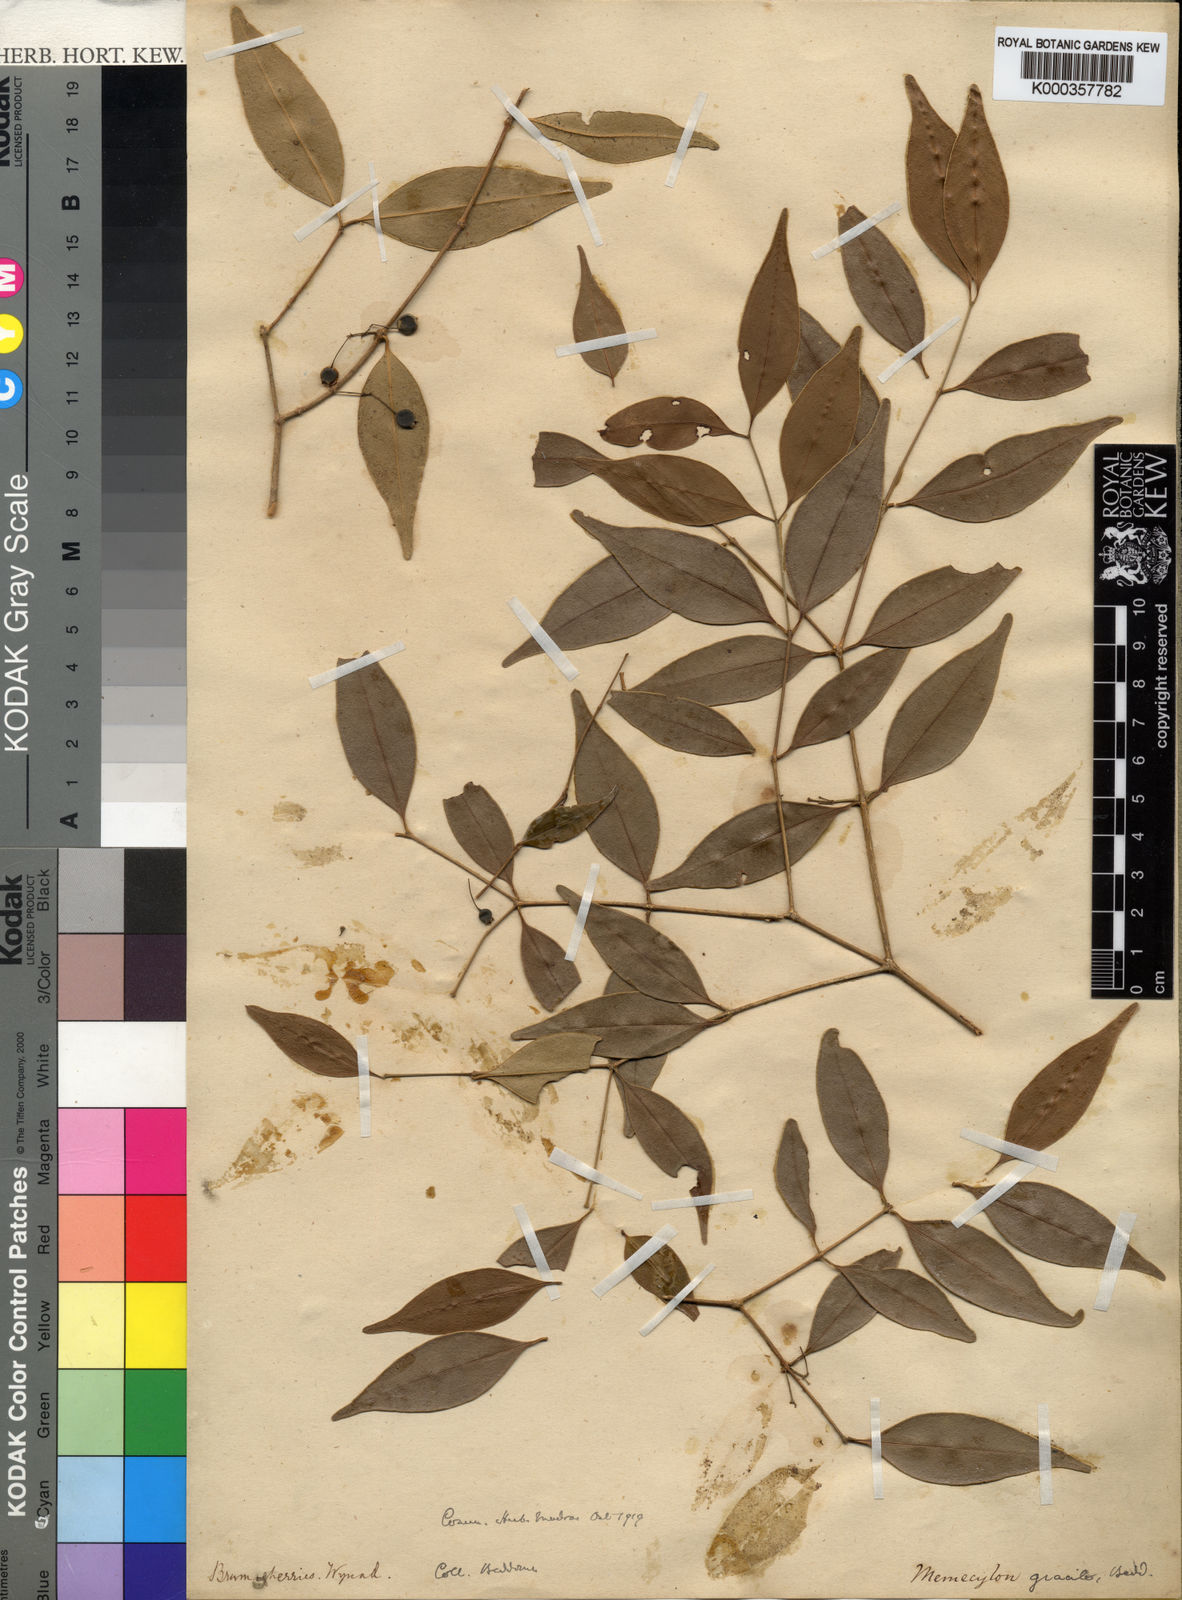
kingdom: Plantae
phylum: Tracheophyta
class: Magnoliopsida
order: Myrtales
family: Melastomataceae
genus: Memecylon
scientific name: Memecylon gracile
